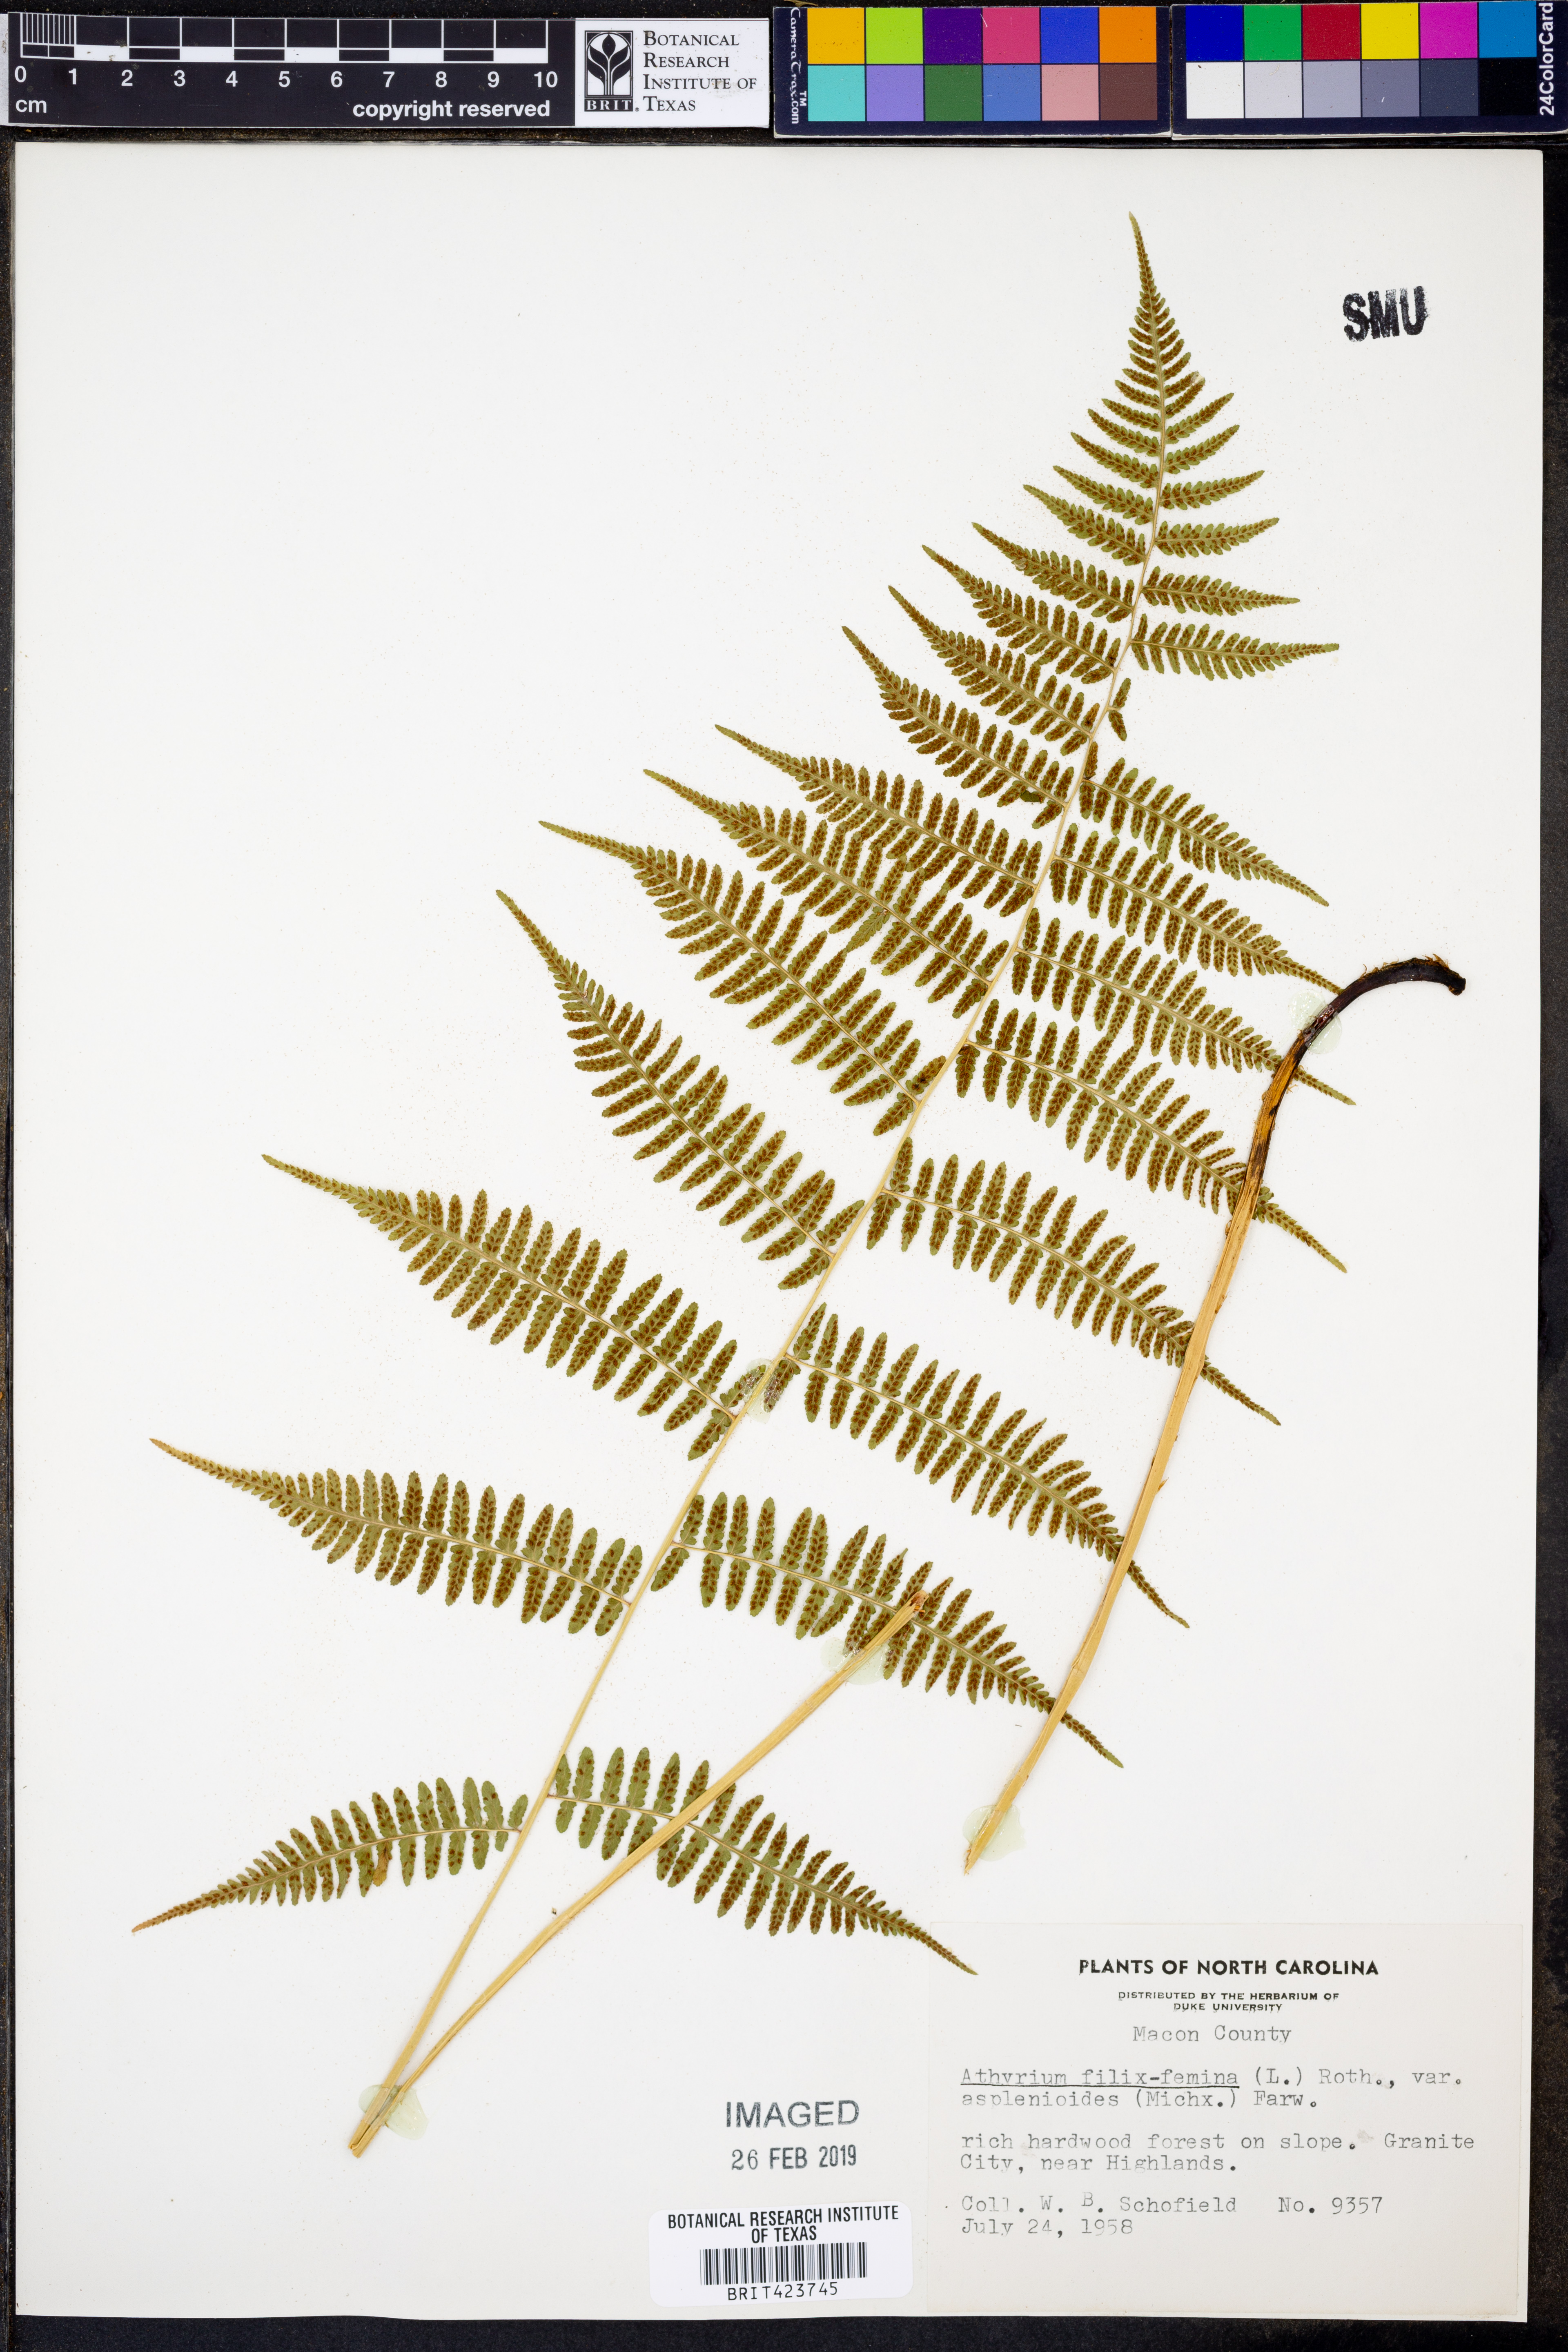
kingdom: Plantae
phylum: Tracheophyta
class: Polypodiopsida
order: Polypodiales
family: Athyriaceae
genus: Athyrium
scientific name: Athyrium asplenioides
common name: Southern lady fern
